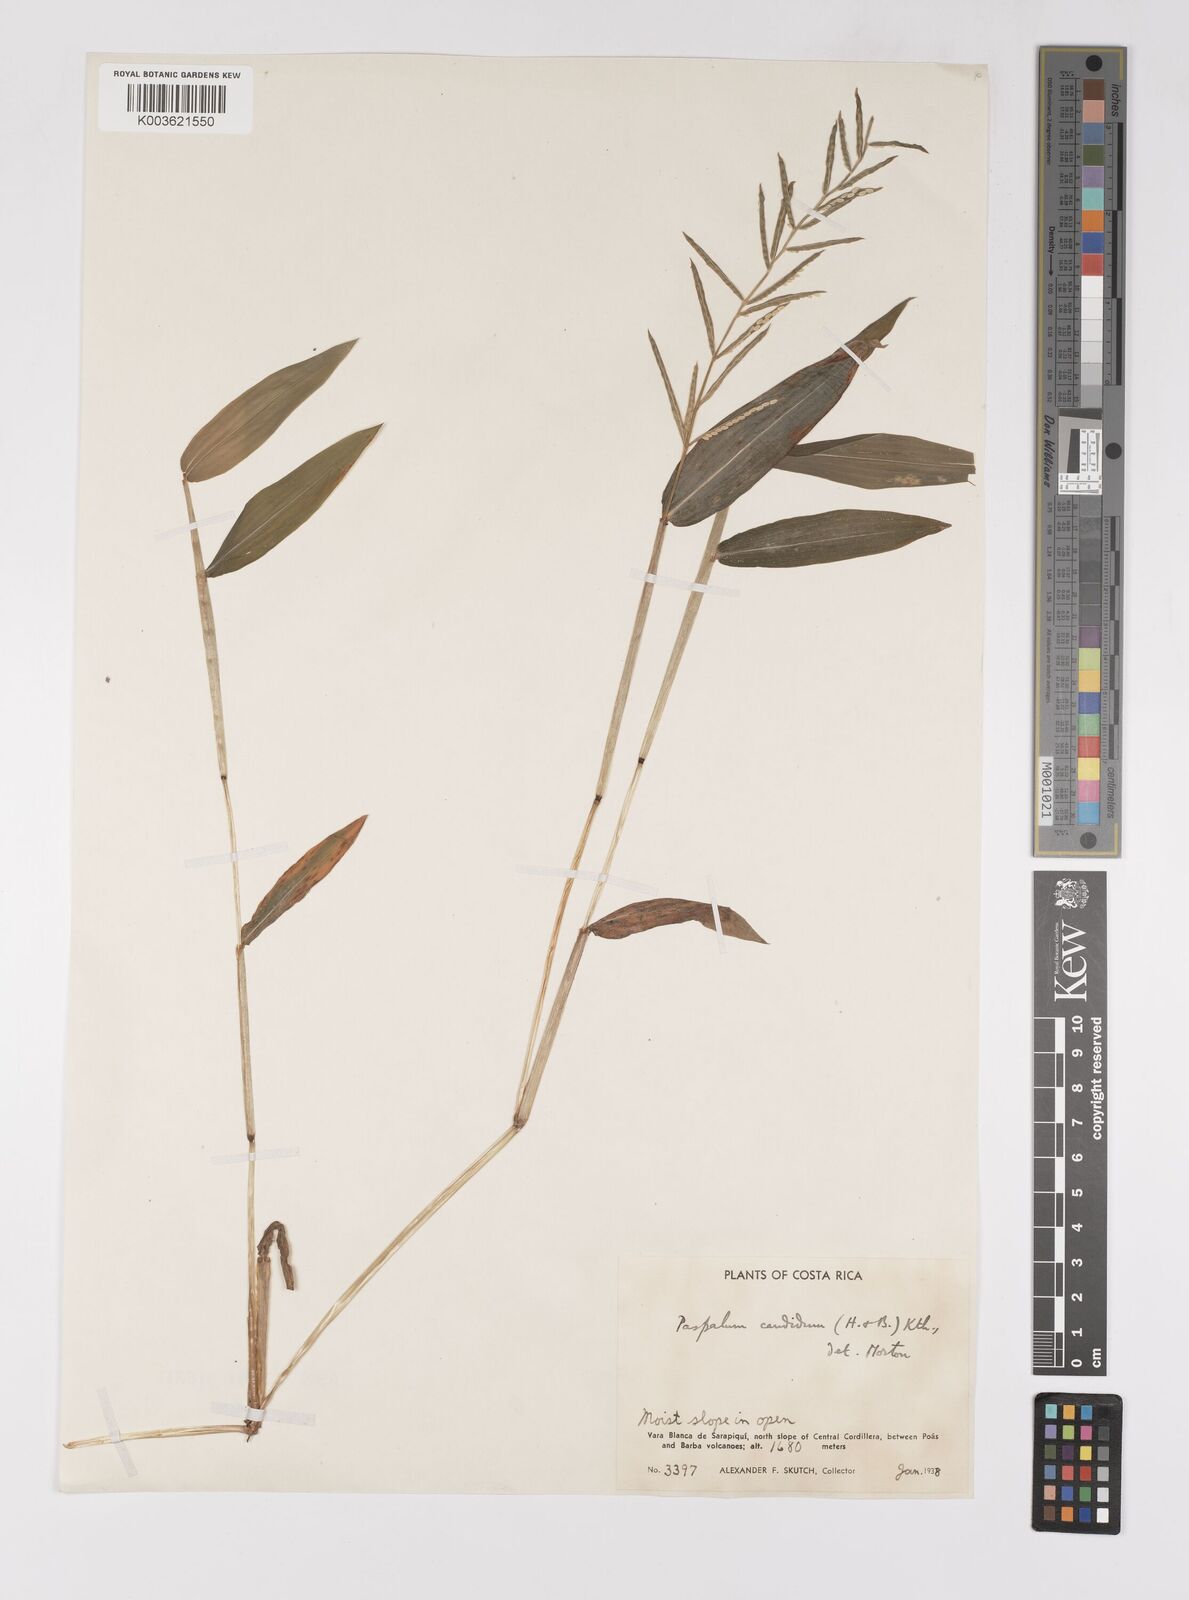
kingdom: Plantae
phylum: Tracheophyta
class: Liliopsida
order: Poales
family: Poaceae
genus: Paspalum
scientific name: Paspalum candidum
